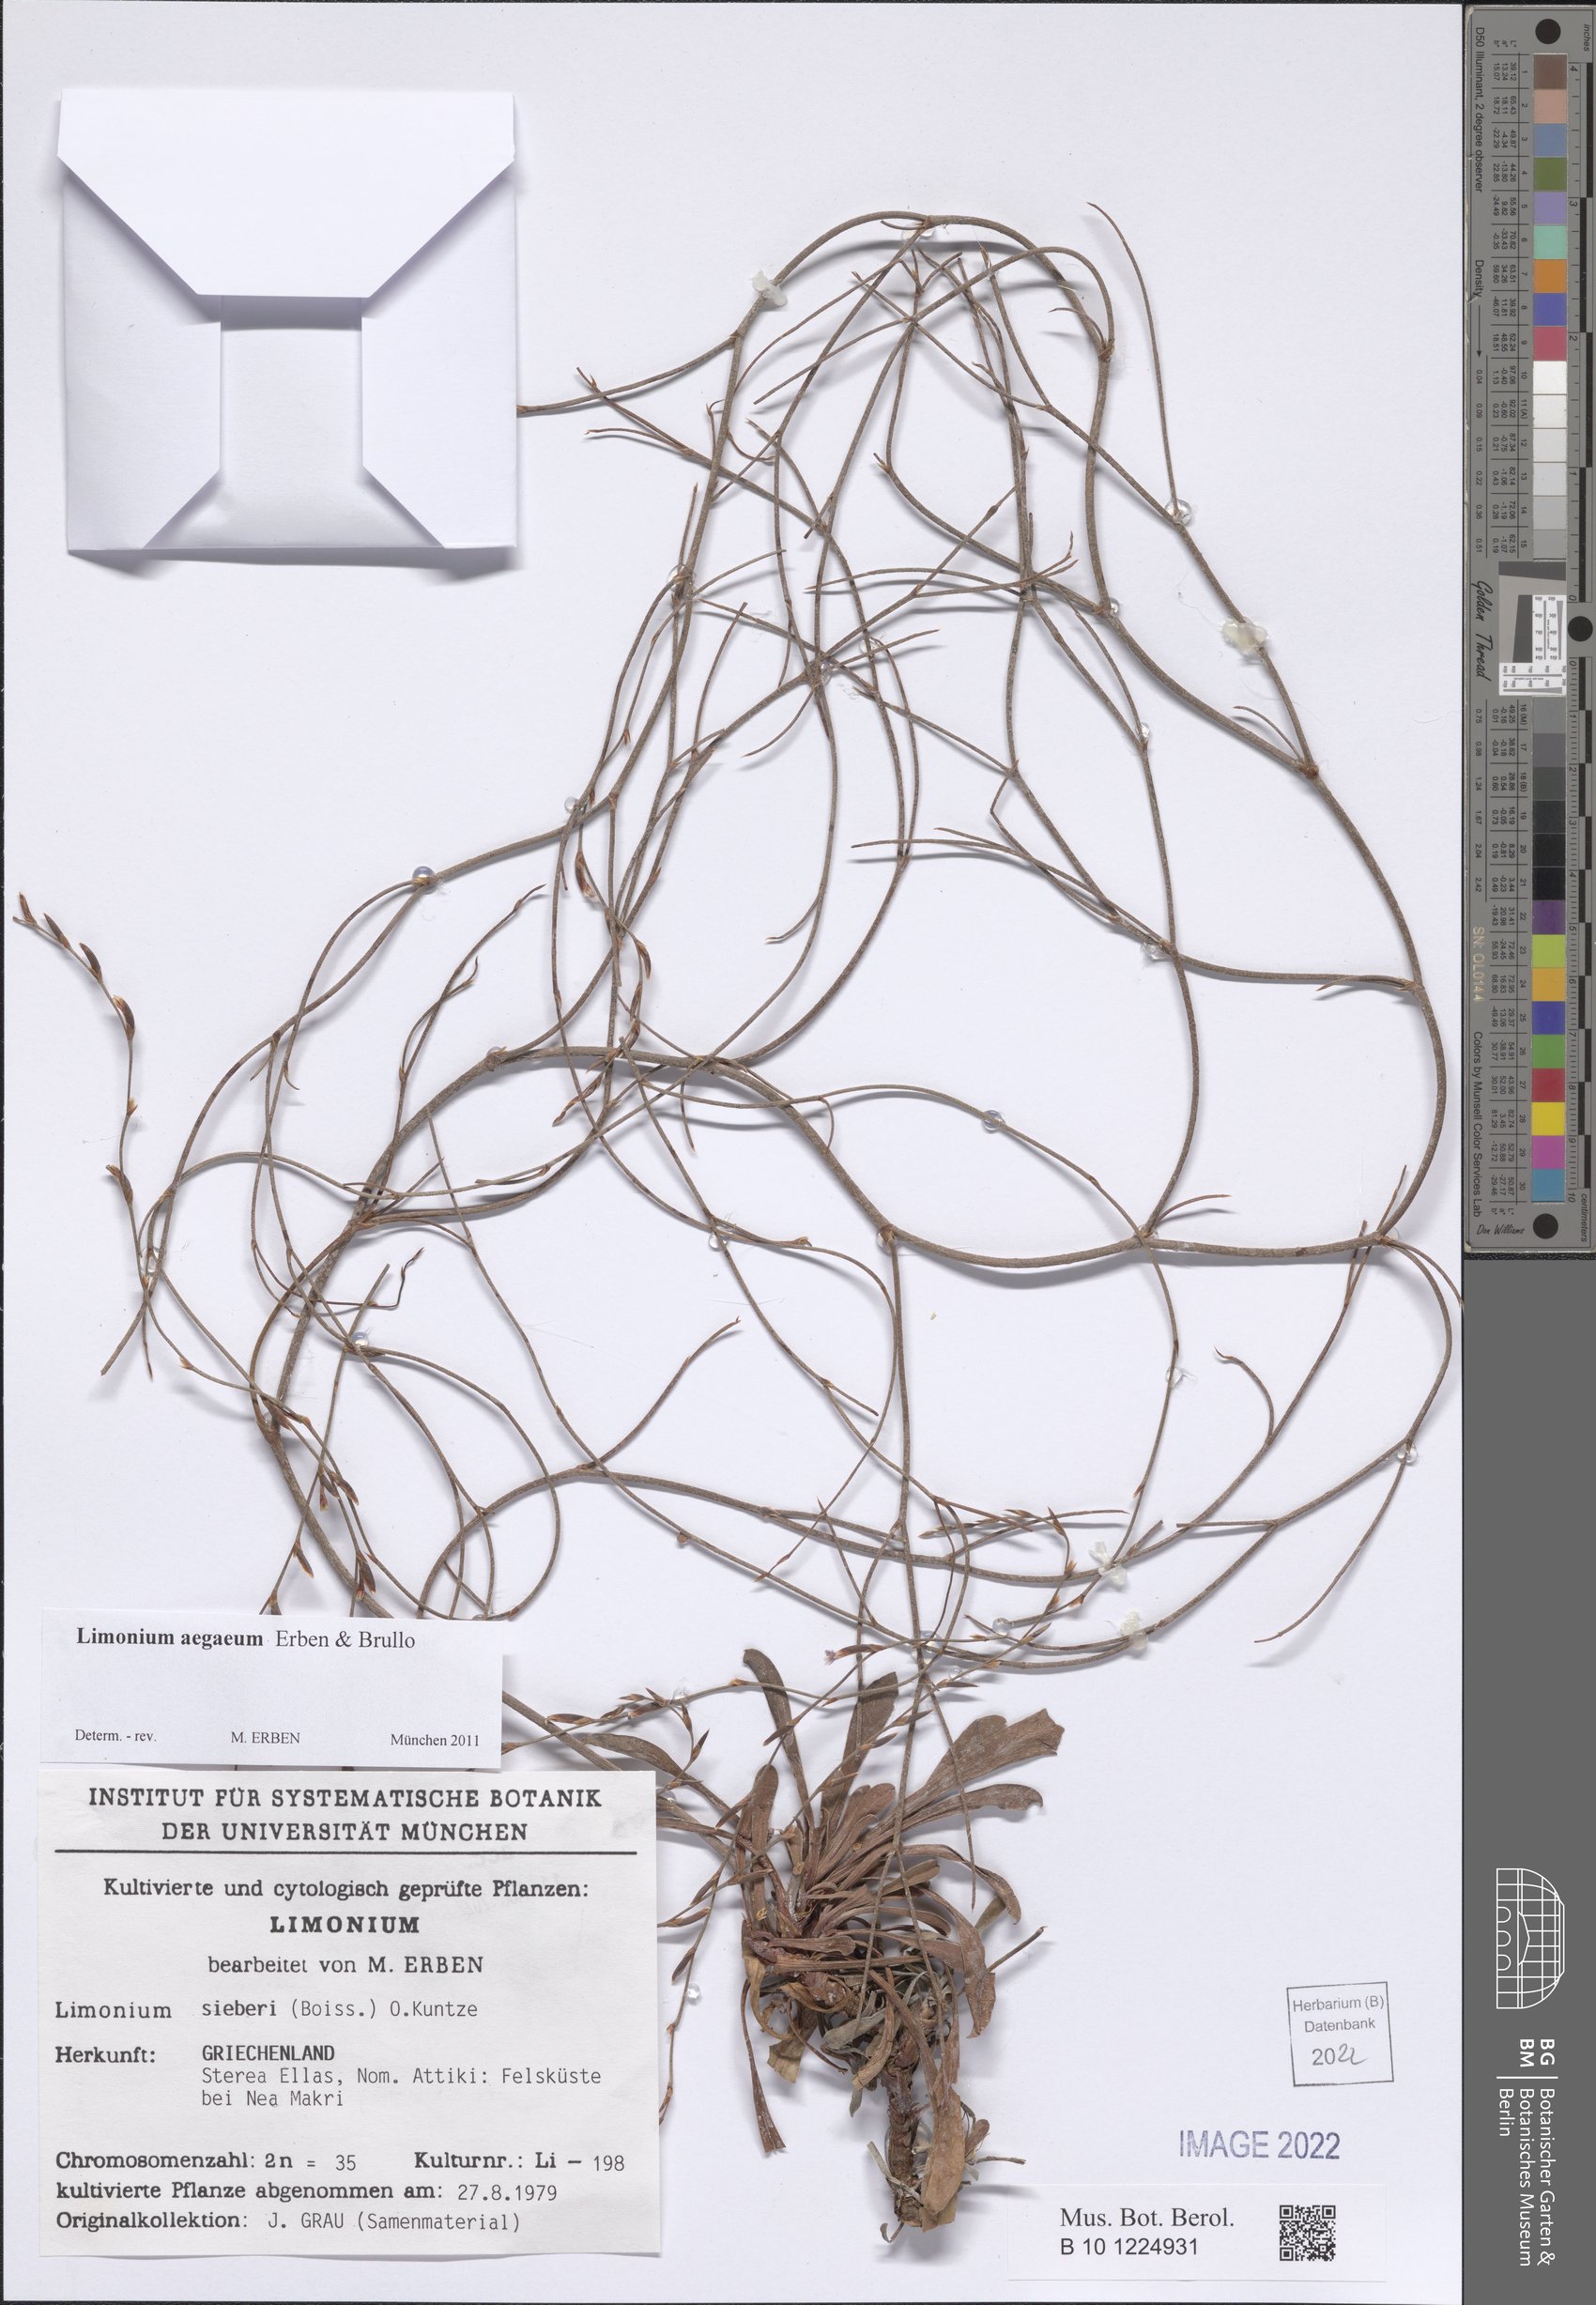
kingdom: Plantae
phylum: Tracheophyta
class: Magnoliopsida
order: Caryophyllales
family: Plumbaginaceae
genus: Limonium
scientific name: Limonium aegaeum
